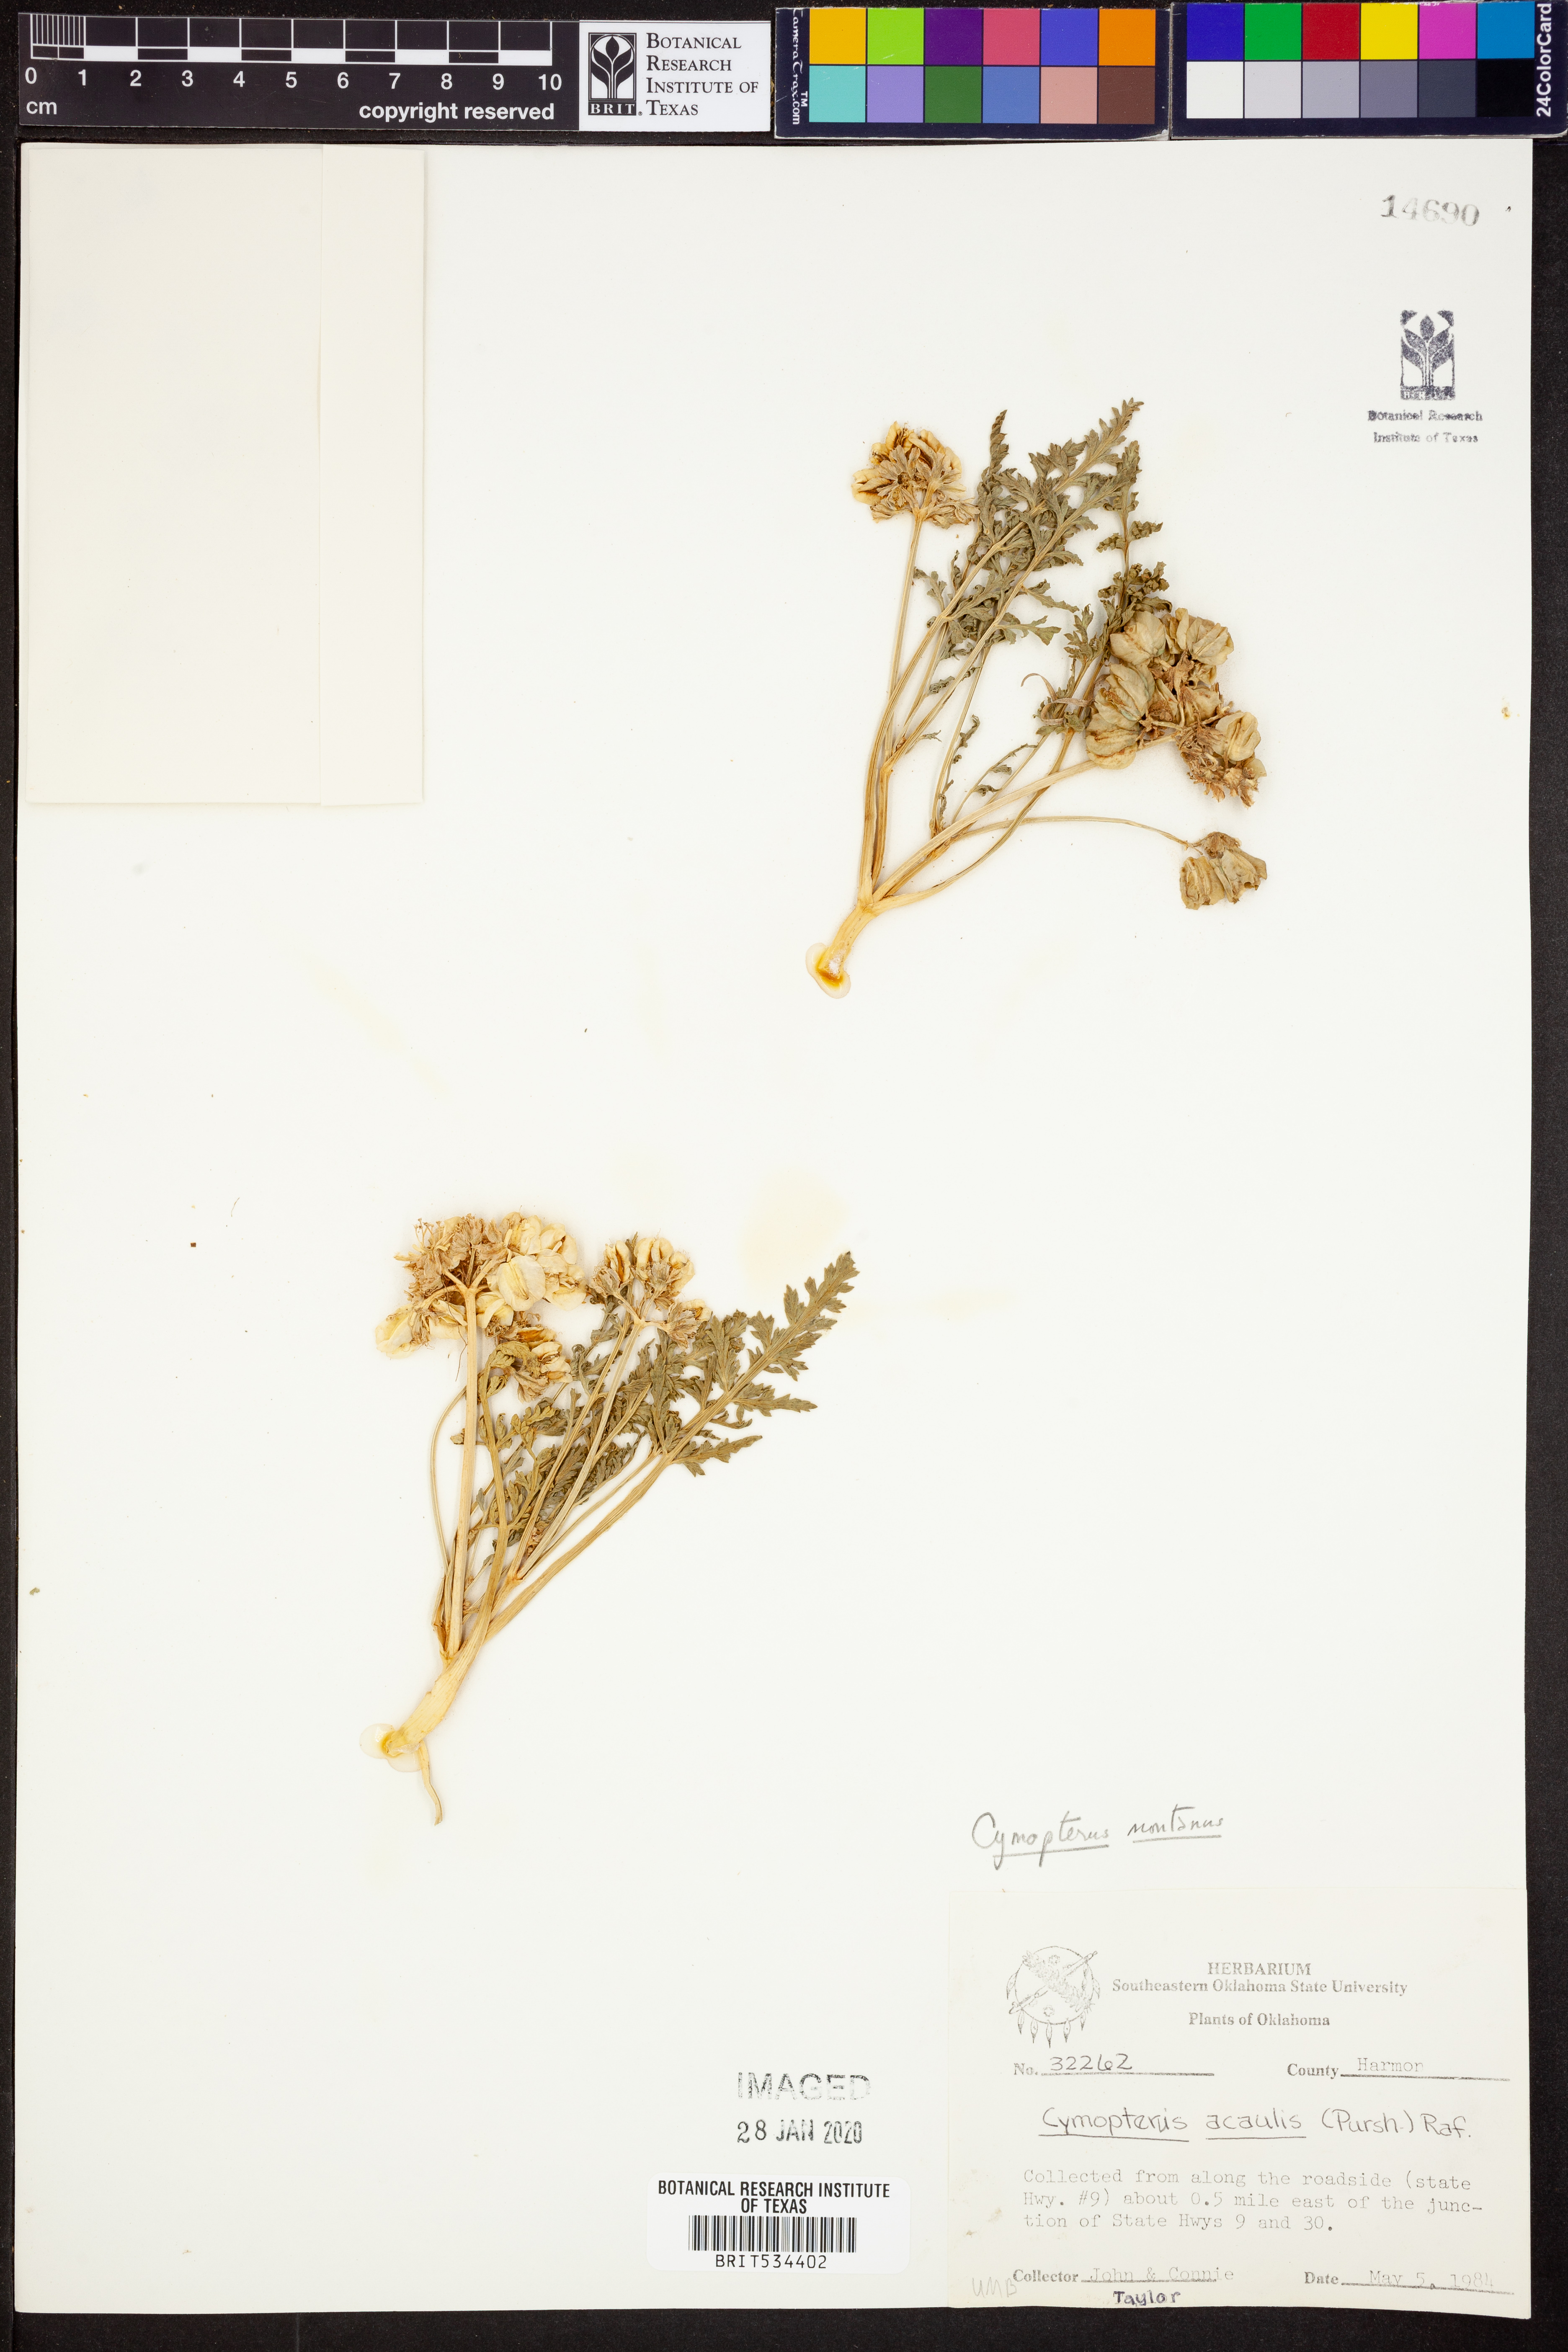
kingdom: Plantae
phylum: Tracheophyta
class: Magnoliopsida
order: Apiales
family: Apiaceae
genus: Vesper
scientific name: Vesper montanus
